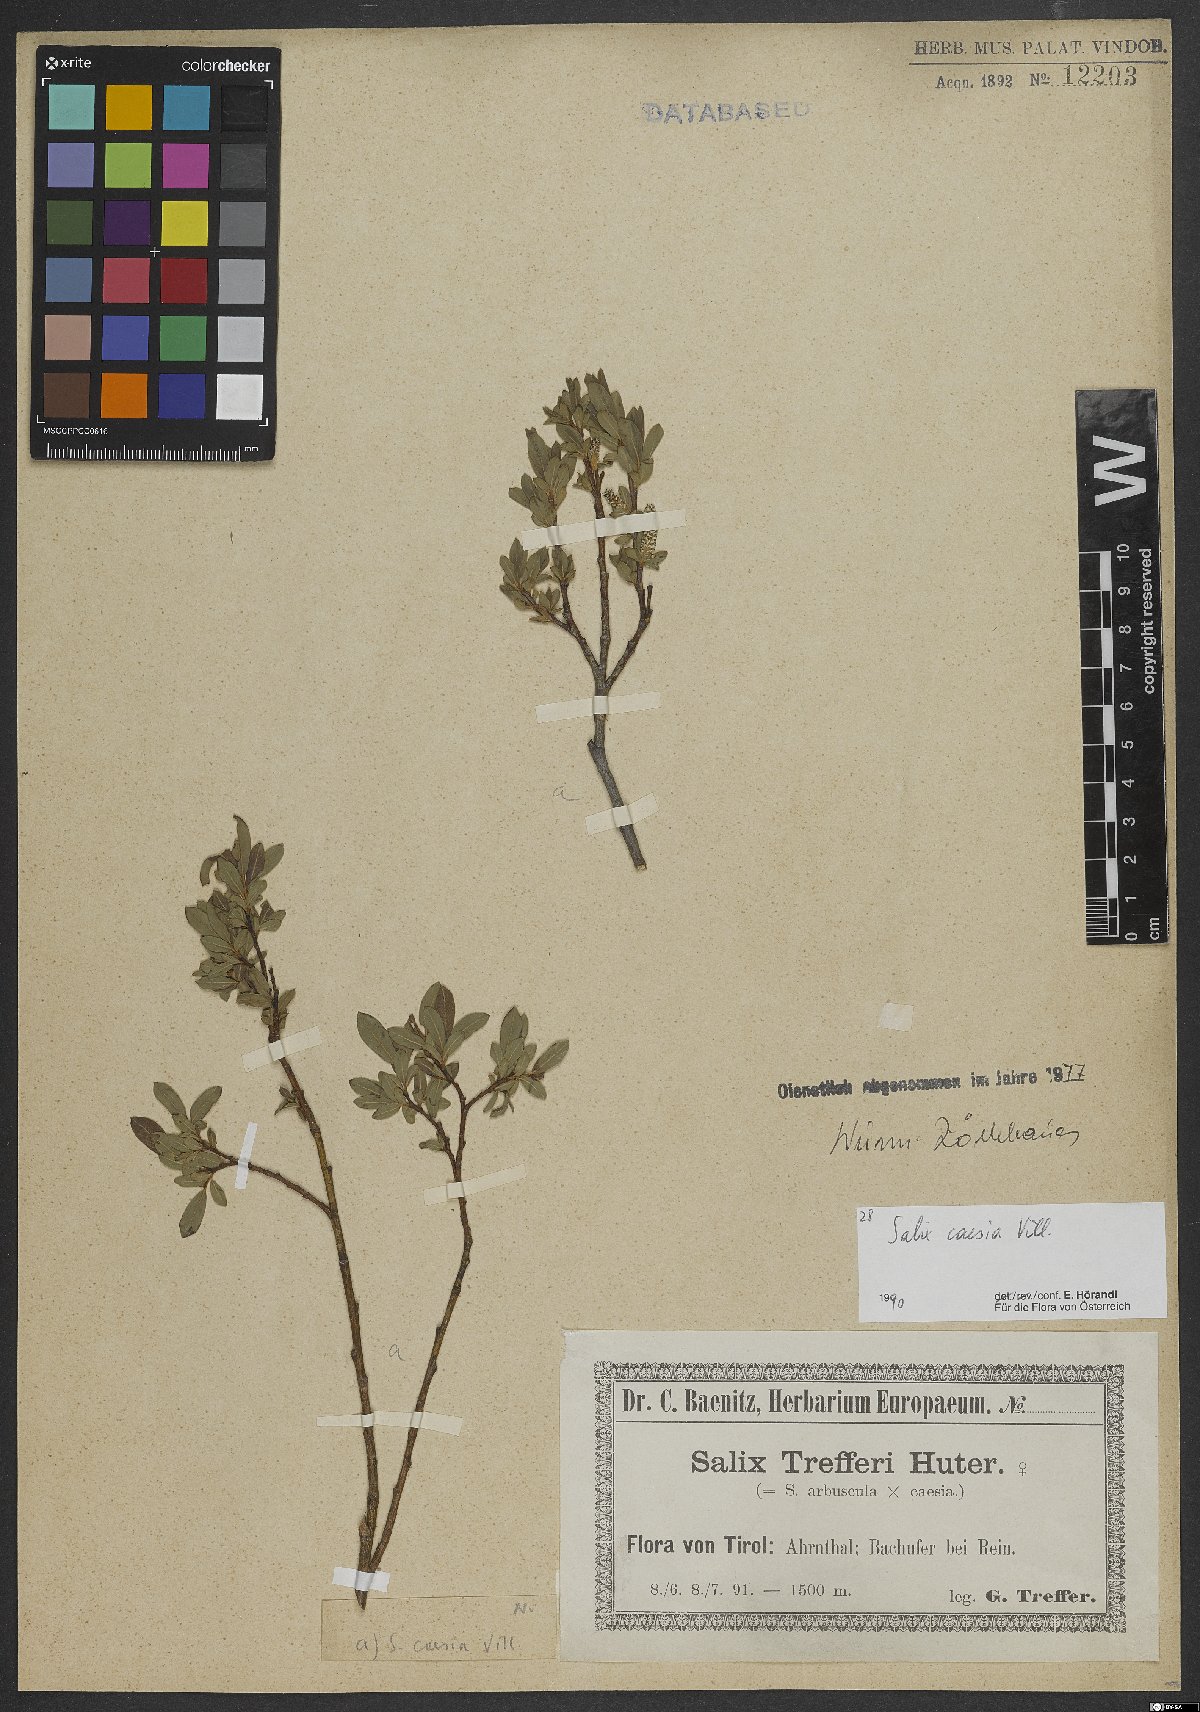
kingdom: Plantae
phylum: Tracheophyta
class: Magnoliopsida
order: Malpighiales
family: Salicaceae
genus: Salix
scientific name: Salix caesia
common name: Blue willow
